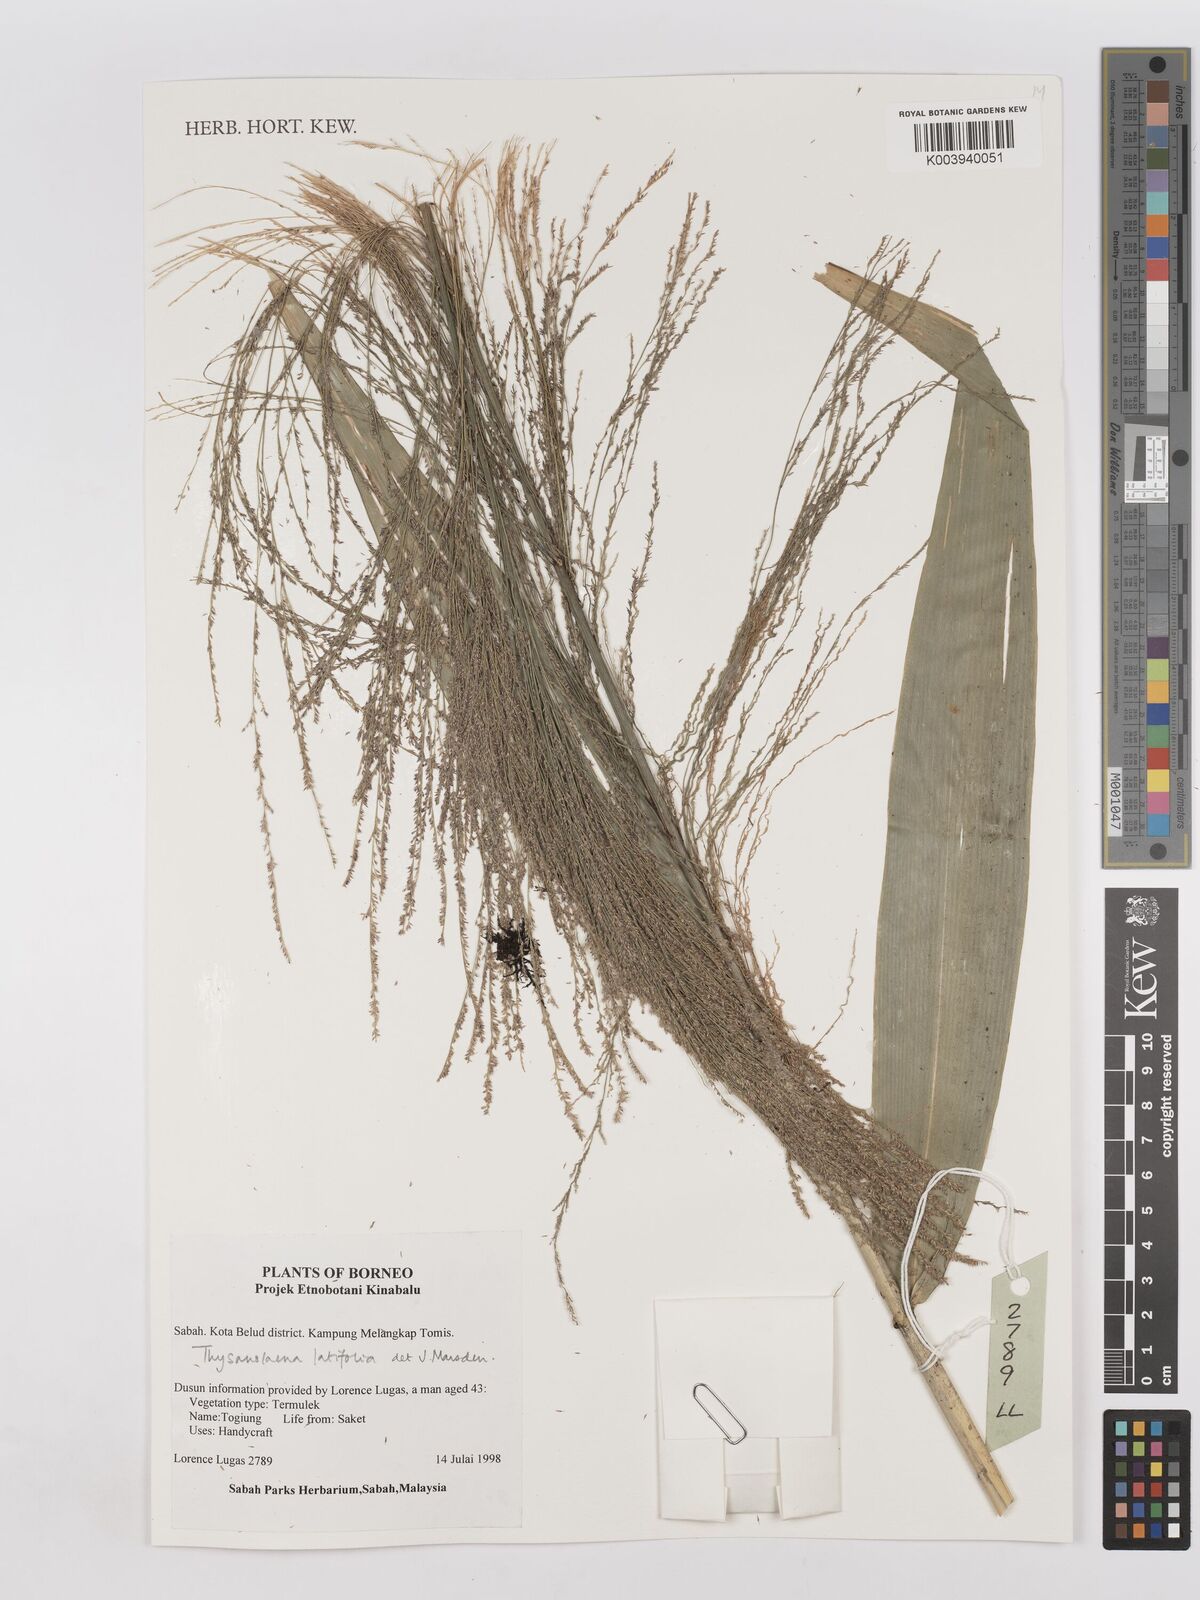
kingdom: Plantae
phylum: Tracheophyta
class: Liliopsida
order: Poales
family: Poaceae
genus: Thysanolaena
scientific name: Thysanolaena latifolia
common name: Tiger grass
